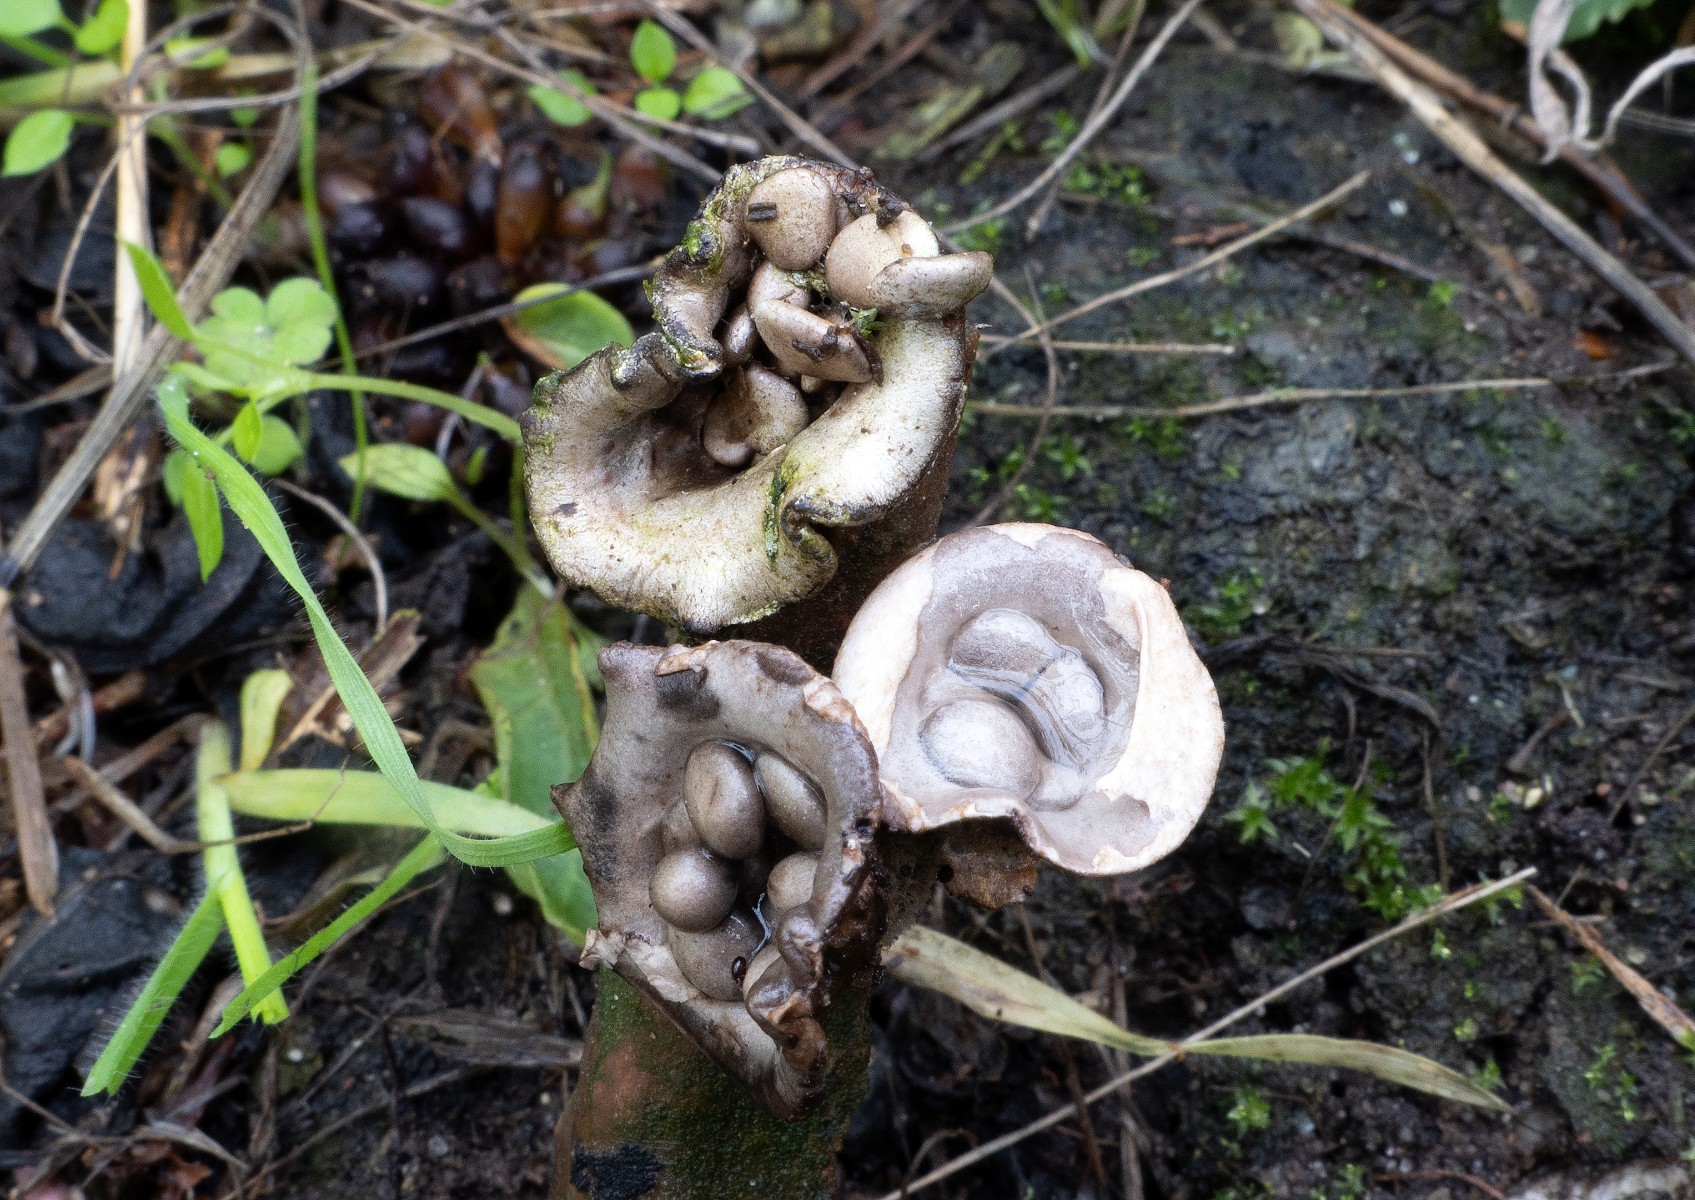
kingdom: Fungi
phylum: Basidiomycota
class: Agaricomycetes
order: Agaricales
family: Agaricaceae
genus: Cyathus
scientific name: Cyathus olla
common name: klokke-redesvamp
